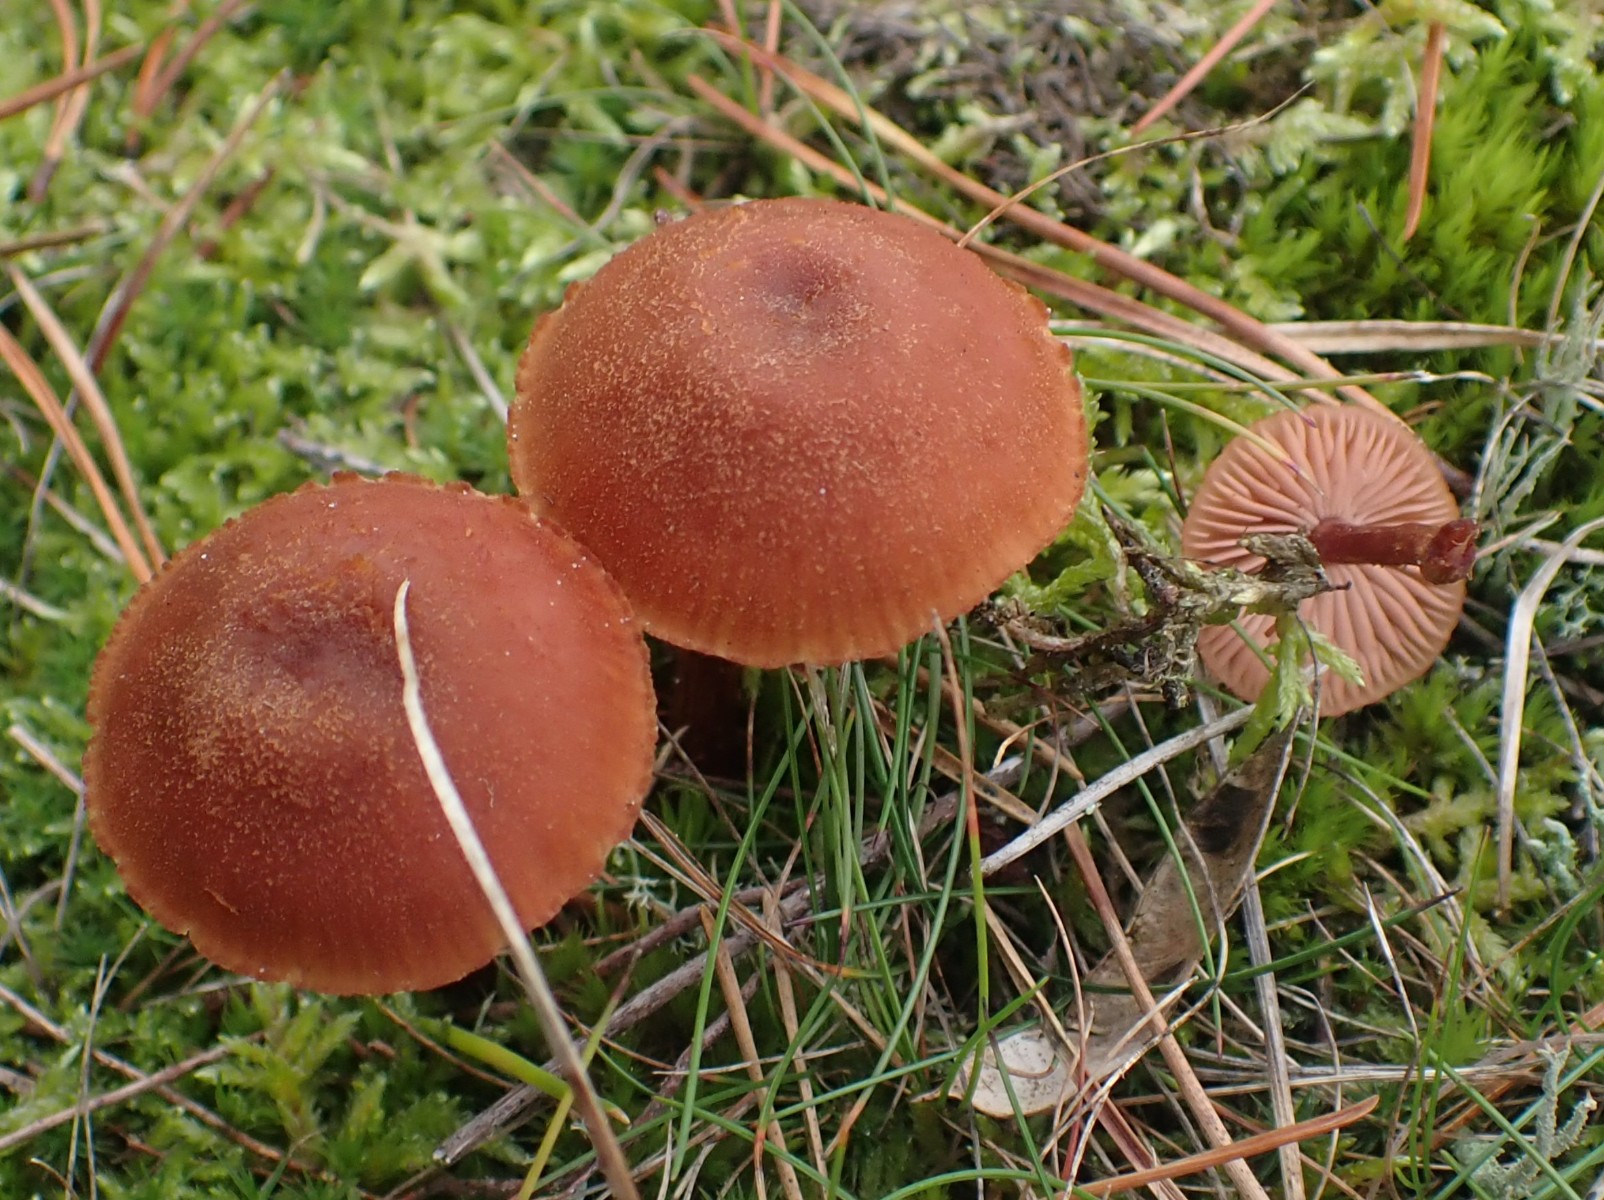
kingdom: Fungi
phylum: Basidiomycota
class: Agaricomycetes
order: Agaricales
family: Hydnangiaceae
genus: Laccaria
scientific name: Laccaria proxima
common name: stor ametysthat
